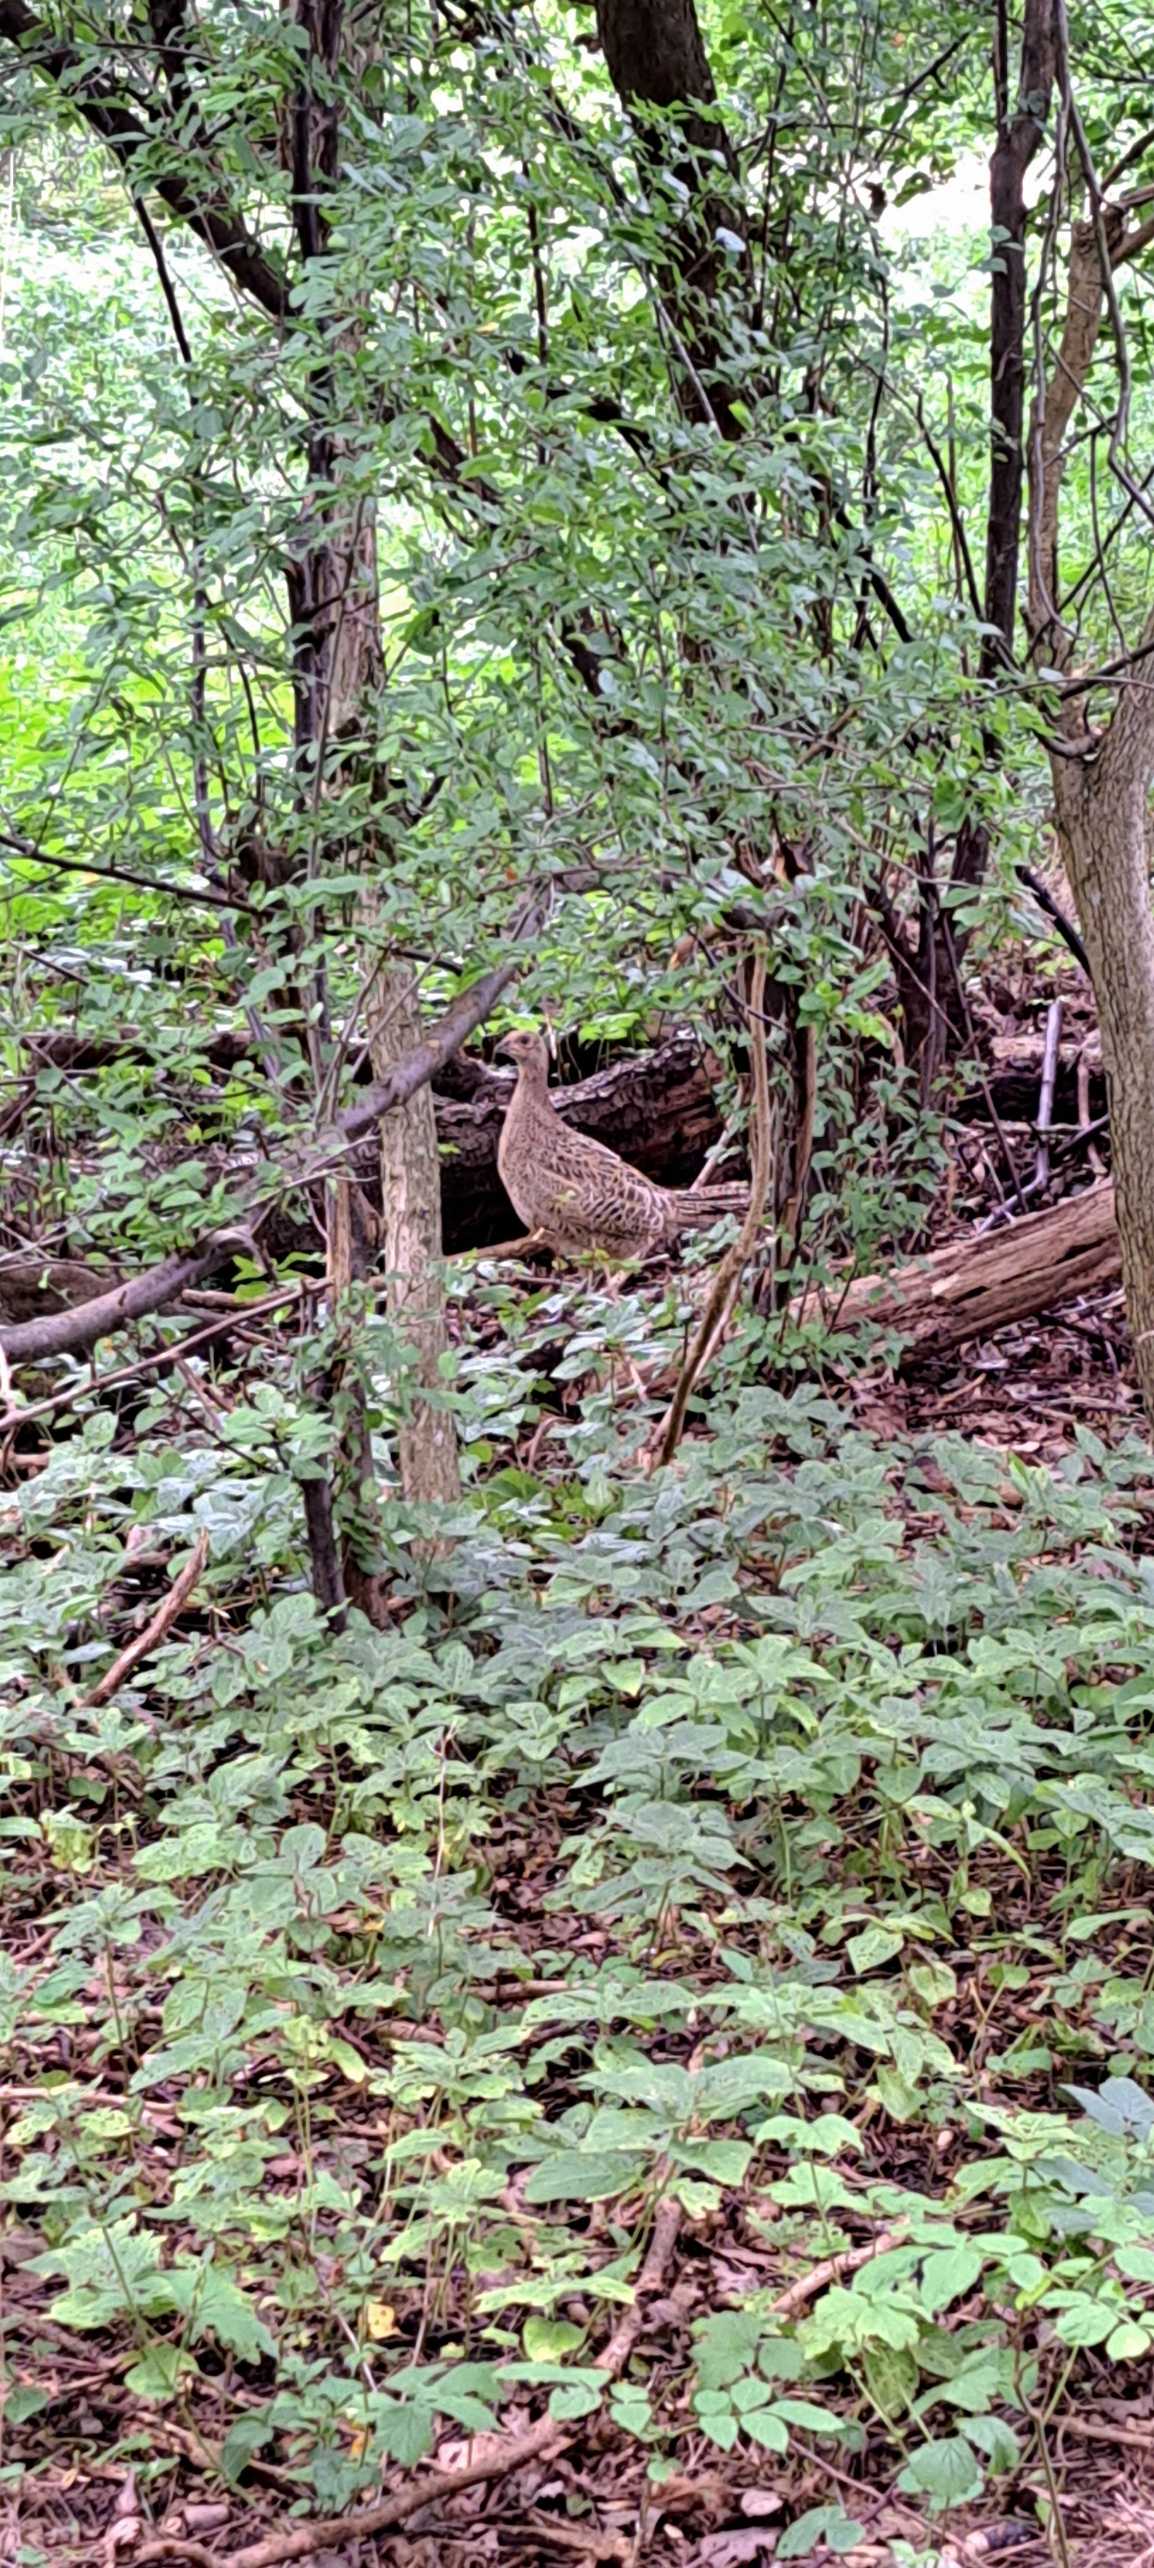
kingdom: Animalia
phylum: Chordata
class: Aves
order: Galliformes
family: Phasianidae
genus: Phasianus
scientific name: Phasianus colchicus
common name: Fasan
